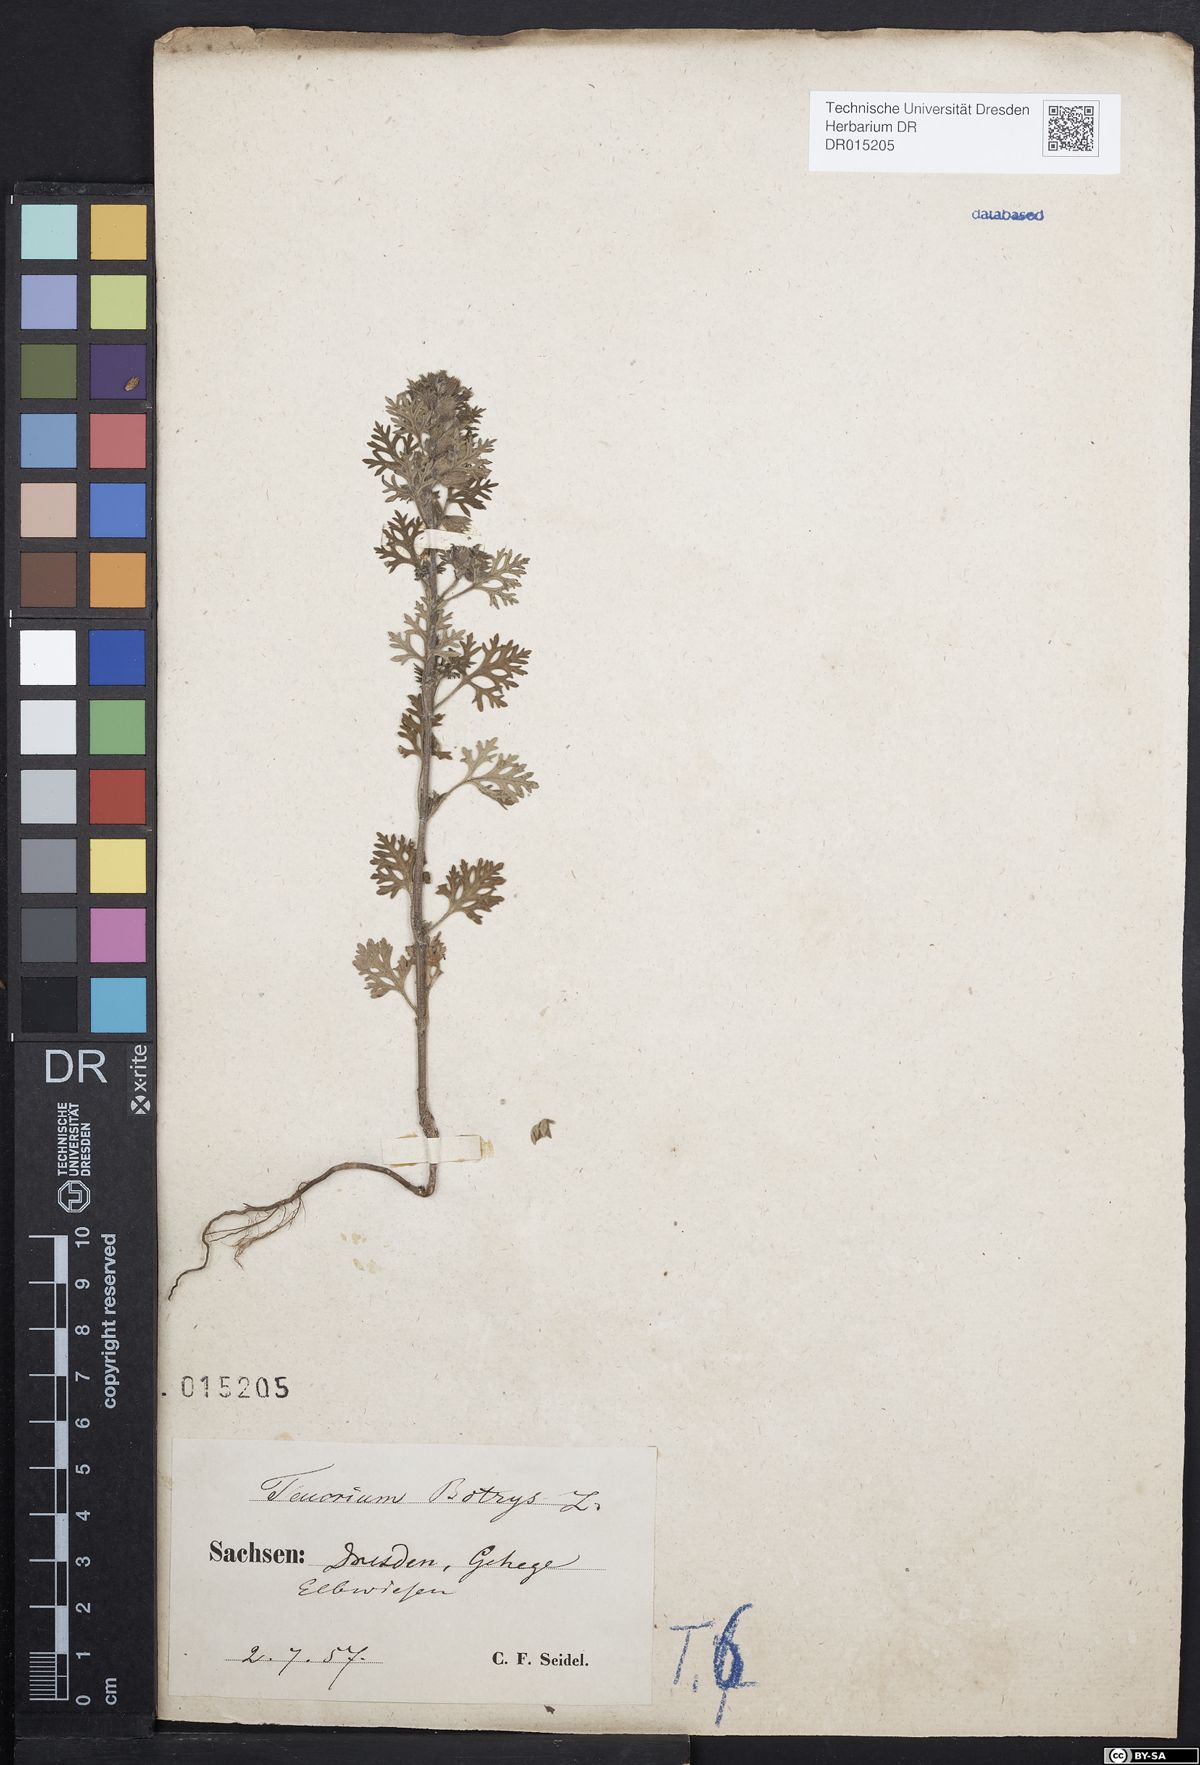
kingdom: Plantae
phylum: Tracheophyta
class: Magnoliopsida
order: Lamiales
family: Lamiaceae
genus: Teucrium
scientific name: Teucrium botrys
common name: Cut-leaved germander
